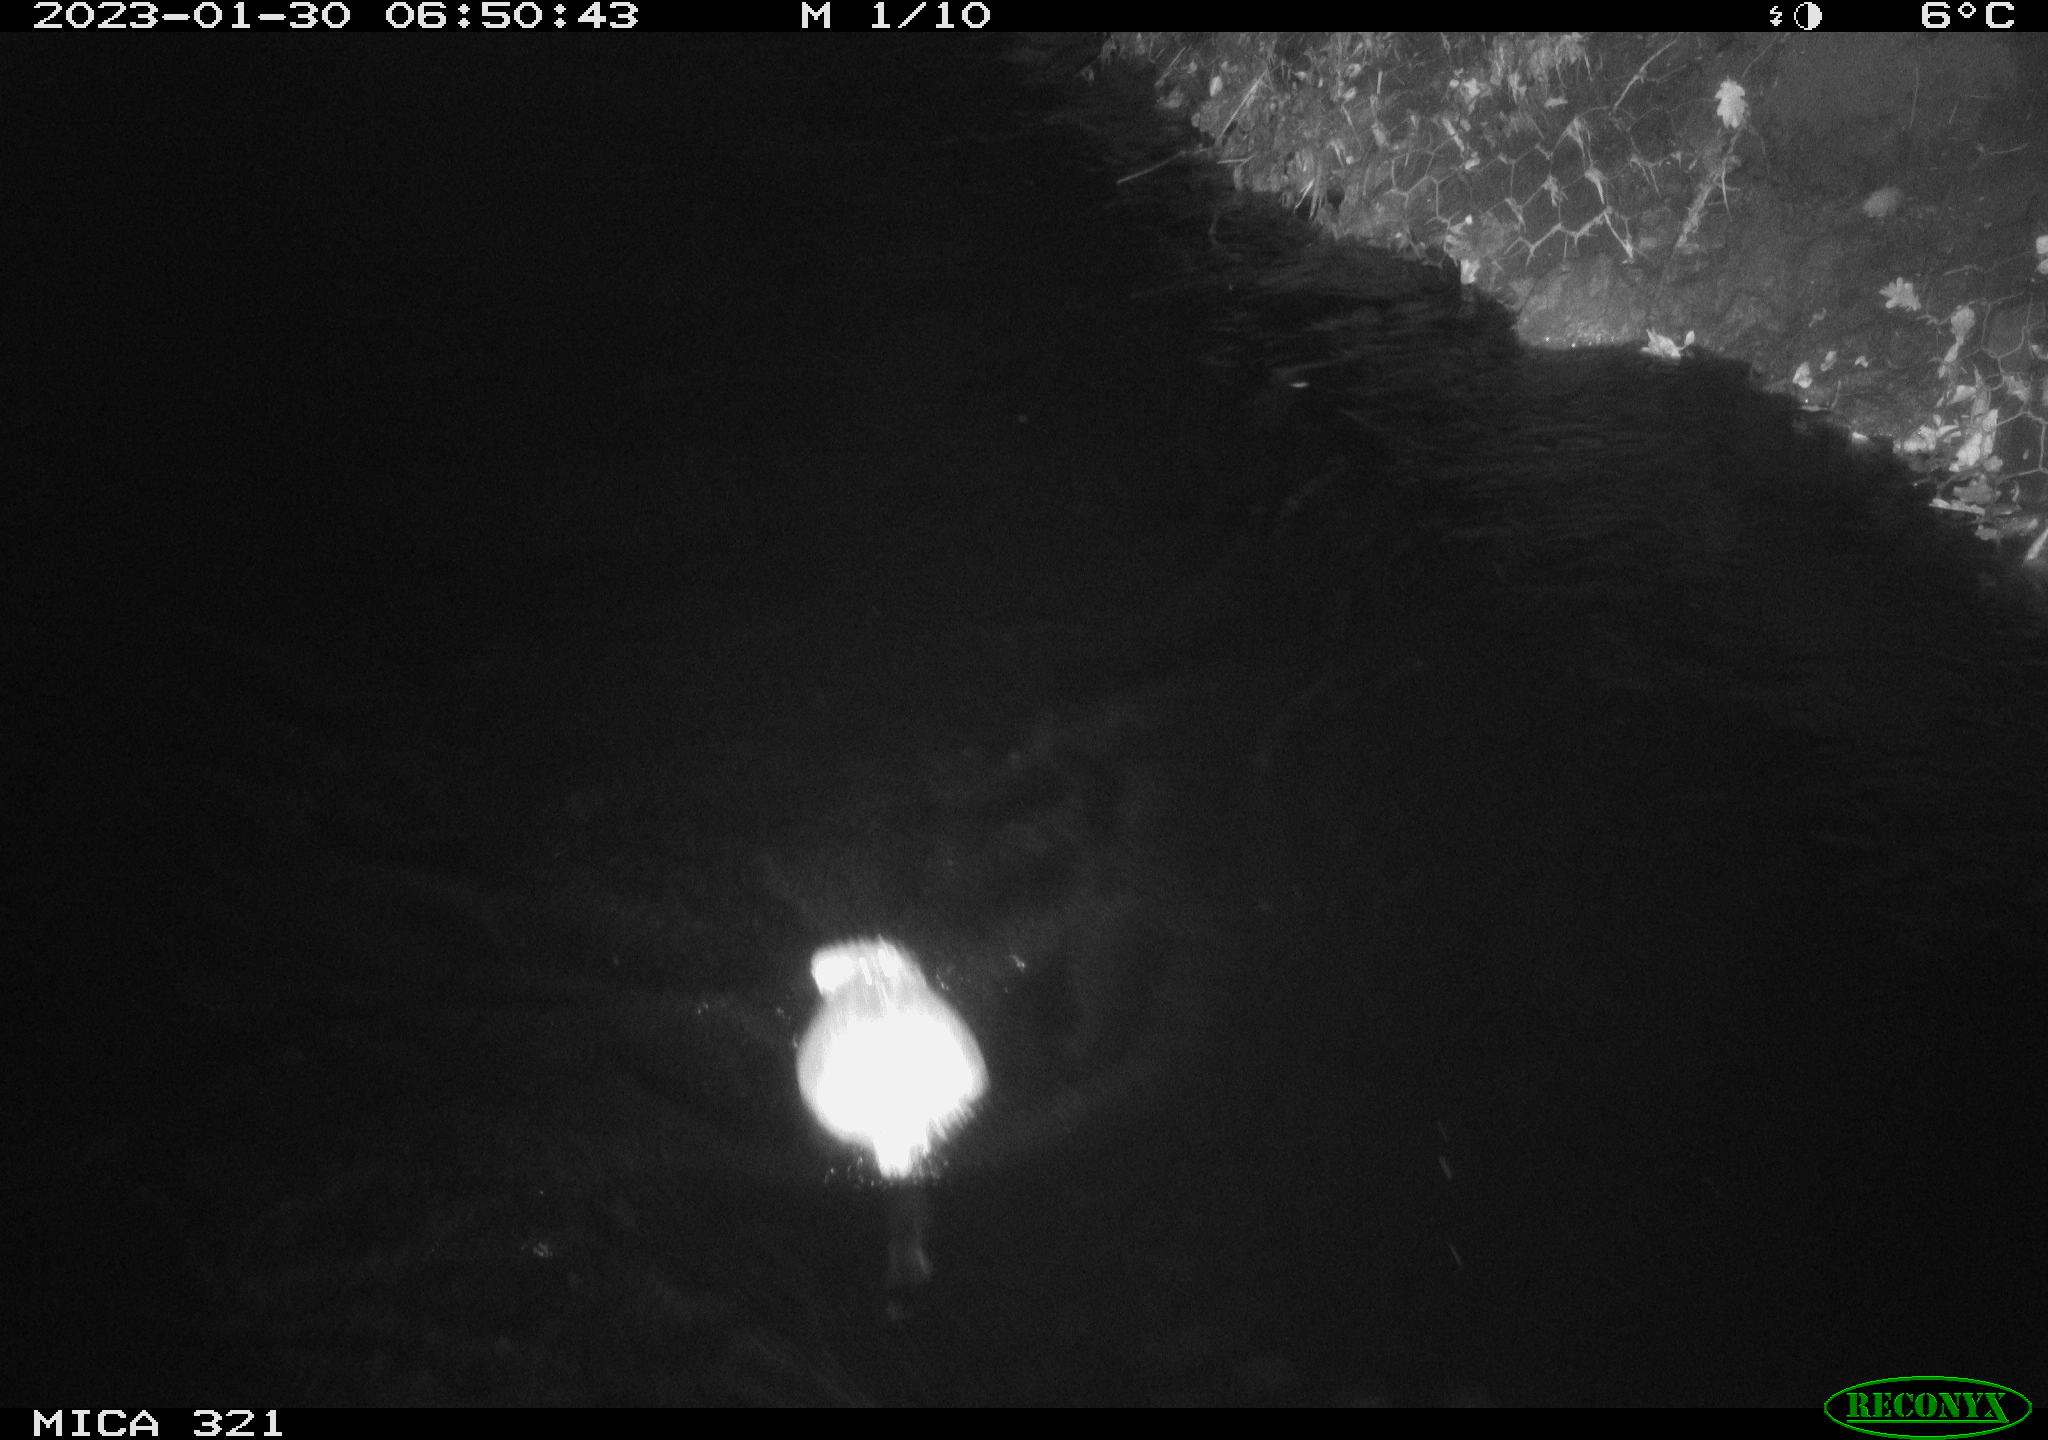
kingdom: Animalia
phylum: Chordata
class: Mammalia
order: Rodentia
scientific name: Rodentia
